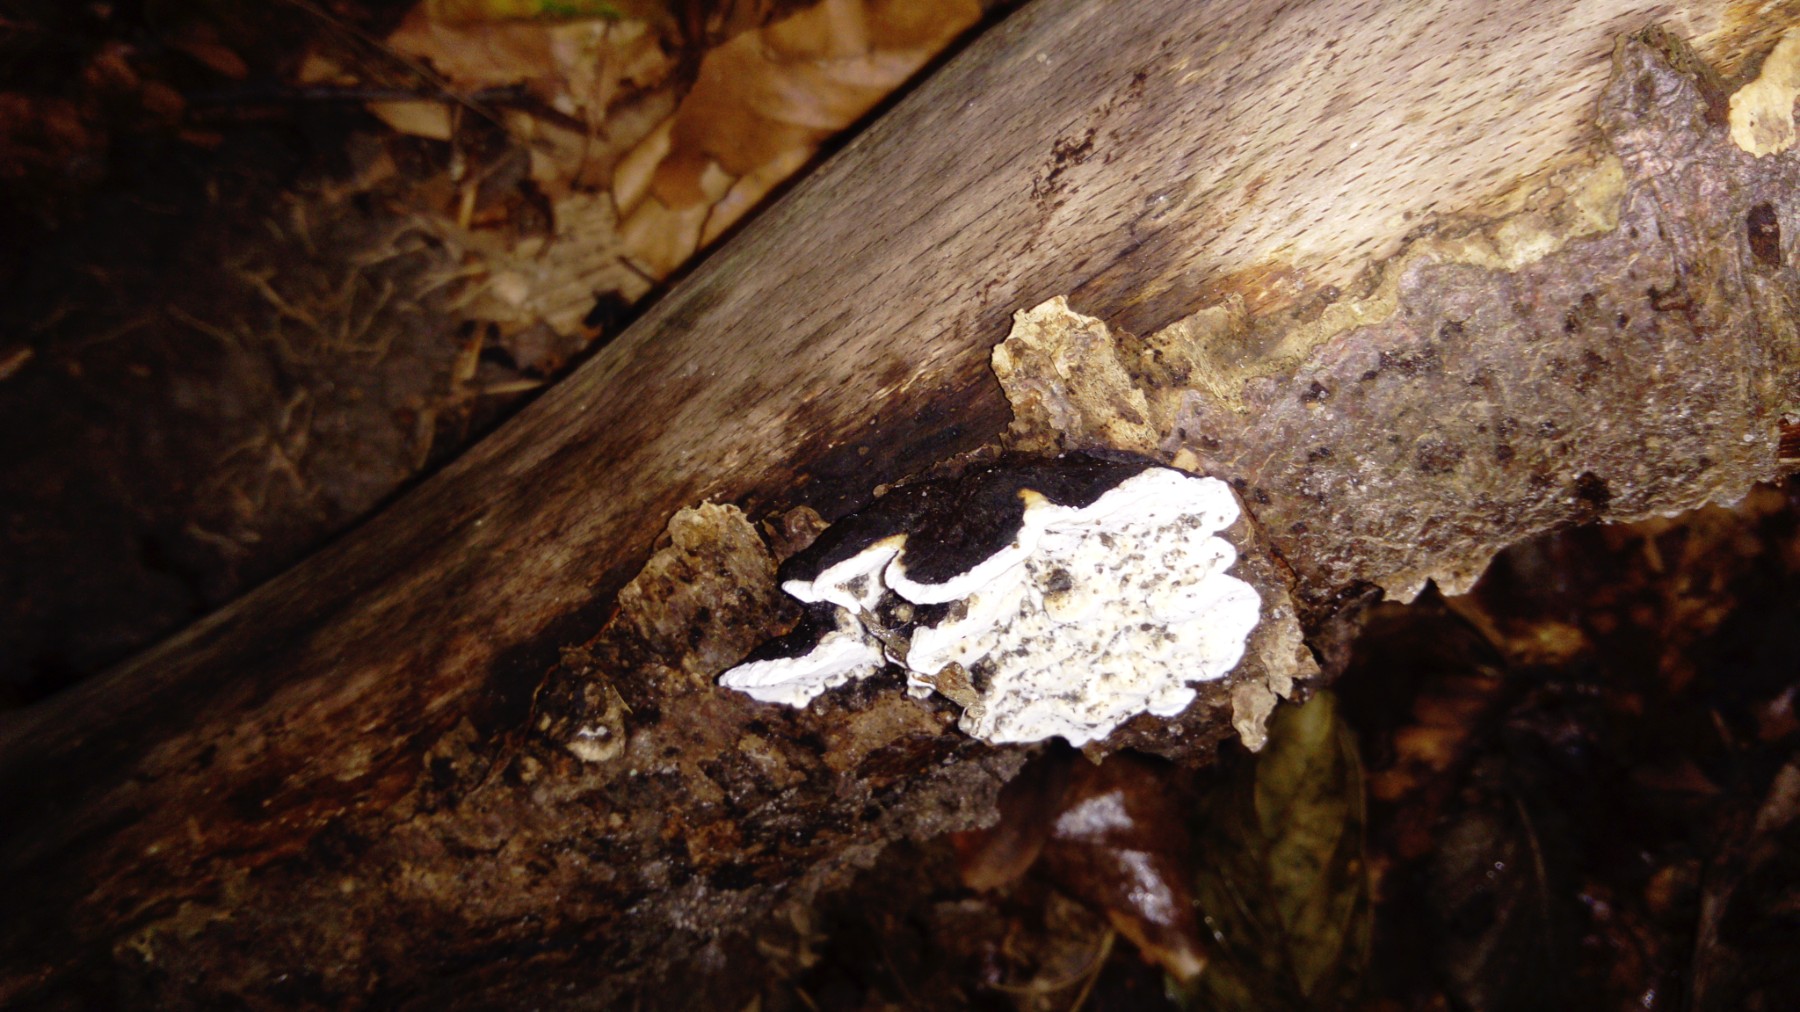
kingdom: Fungi
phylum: Basidiomycota
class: Agaricomycetes
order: Polyporales
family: Incrustoporiaceae
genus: Skeletocutis
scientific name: Skeletocutis nemoralis
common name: stor krystalporesvamp
